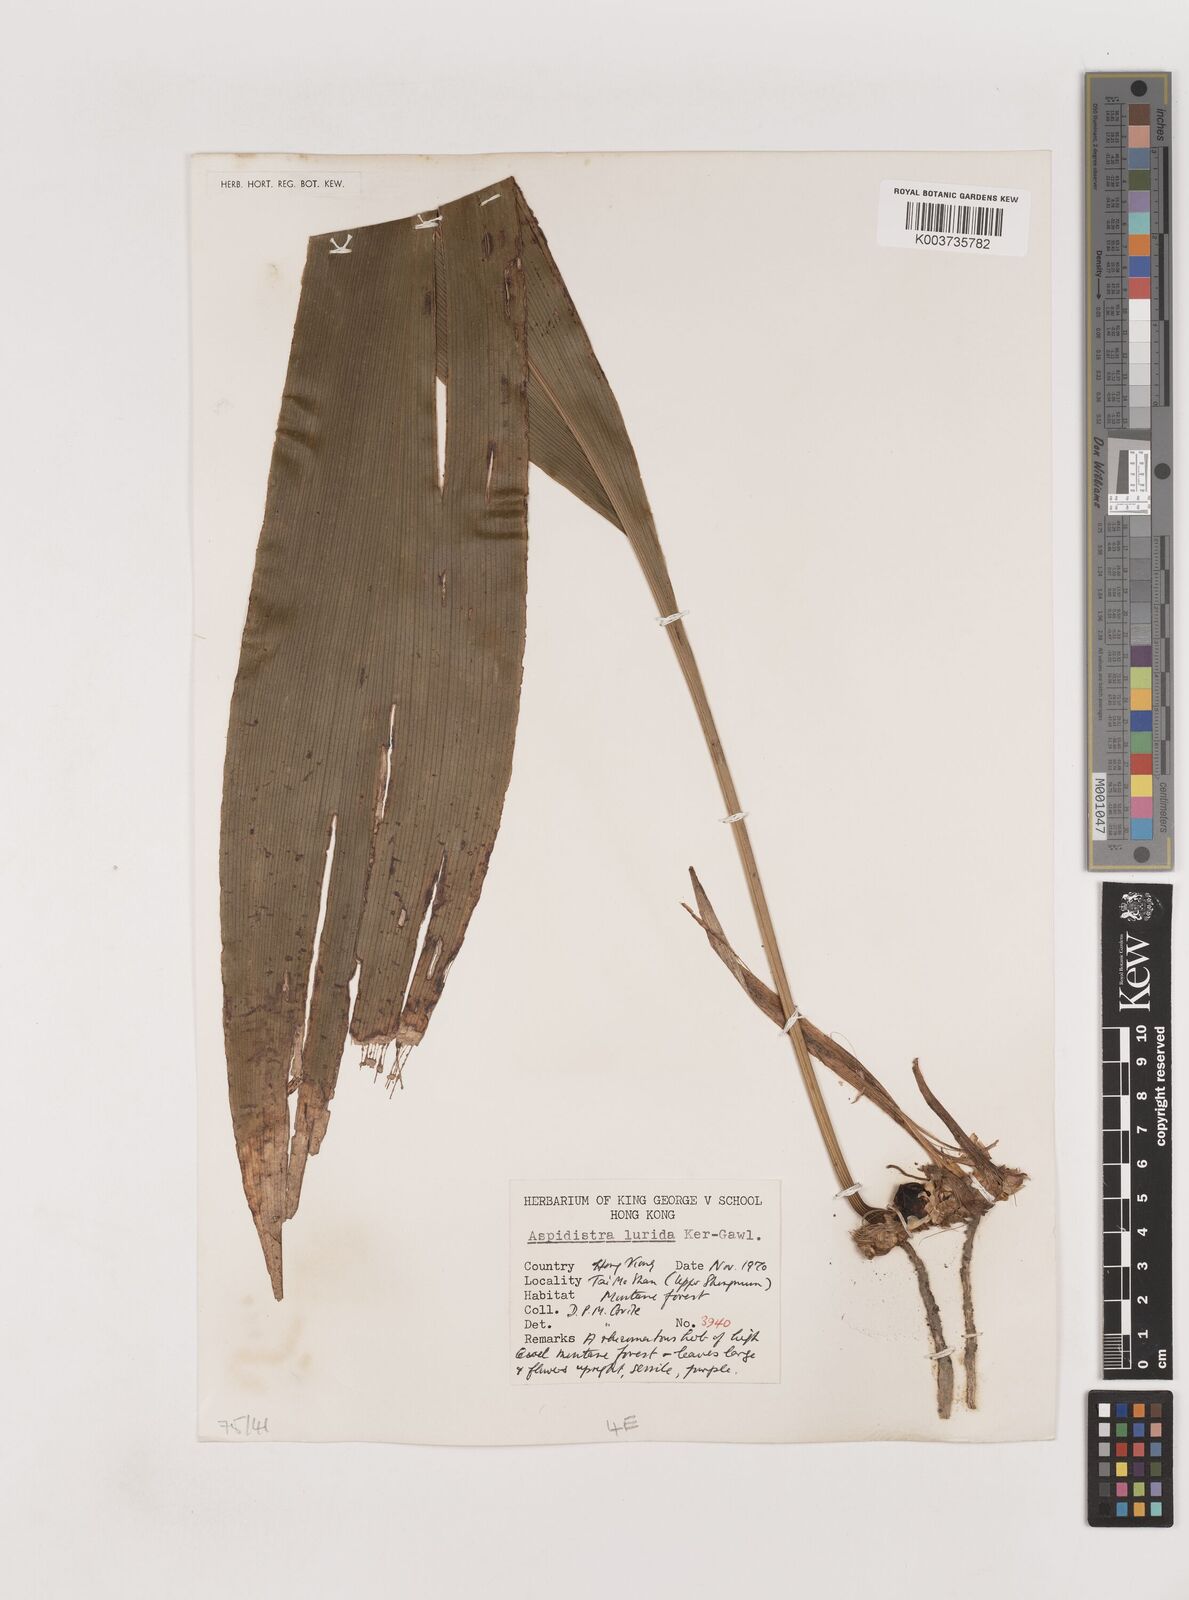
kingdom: Plantae
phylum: Tracheophyta
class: Liliopsida
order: Asparagales
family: Asparagaceae
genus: Aspidistra
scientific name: Aspidistra lurida
